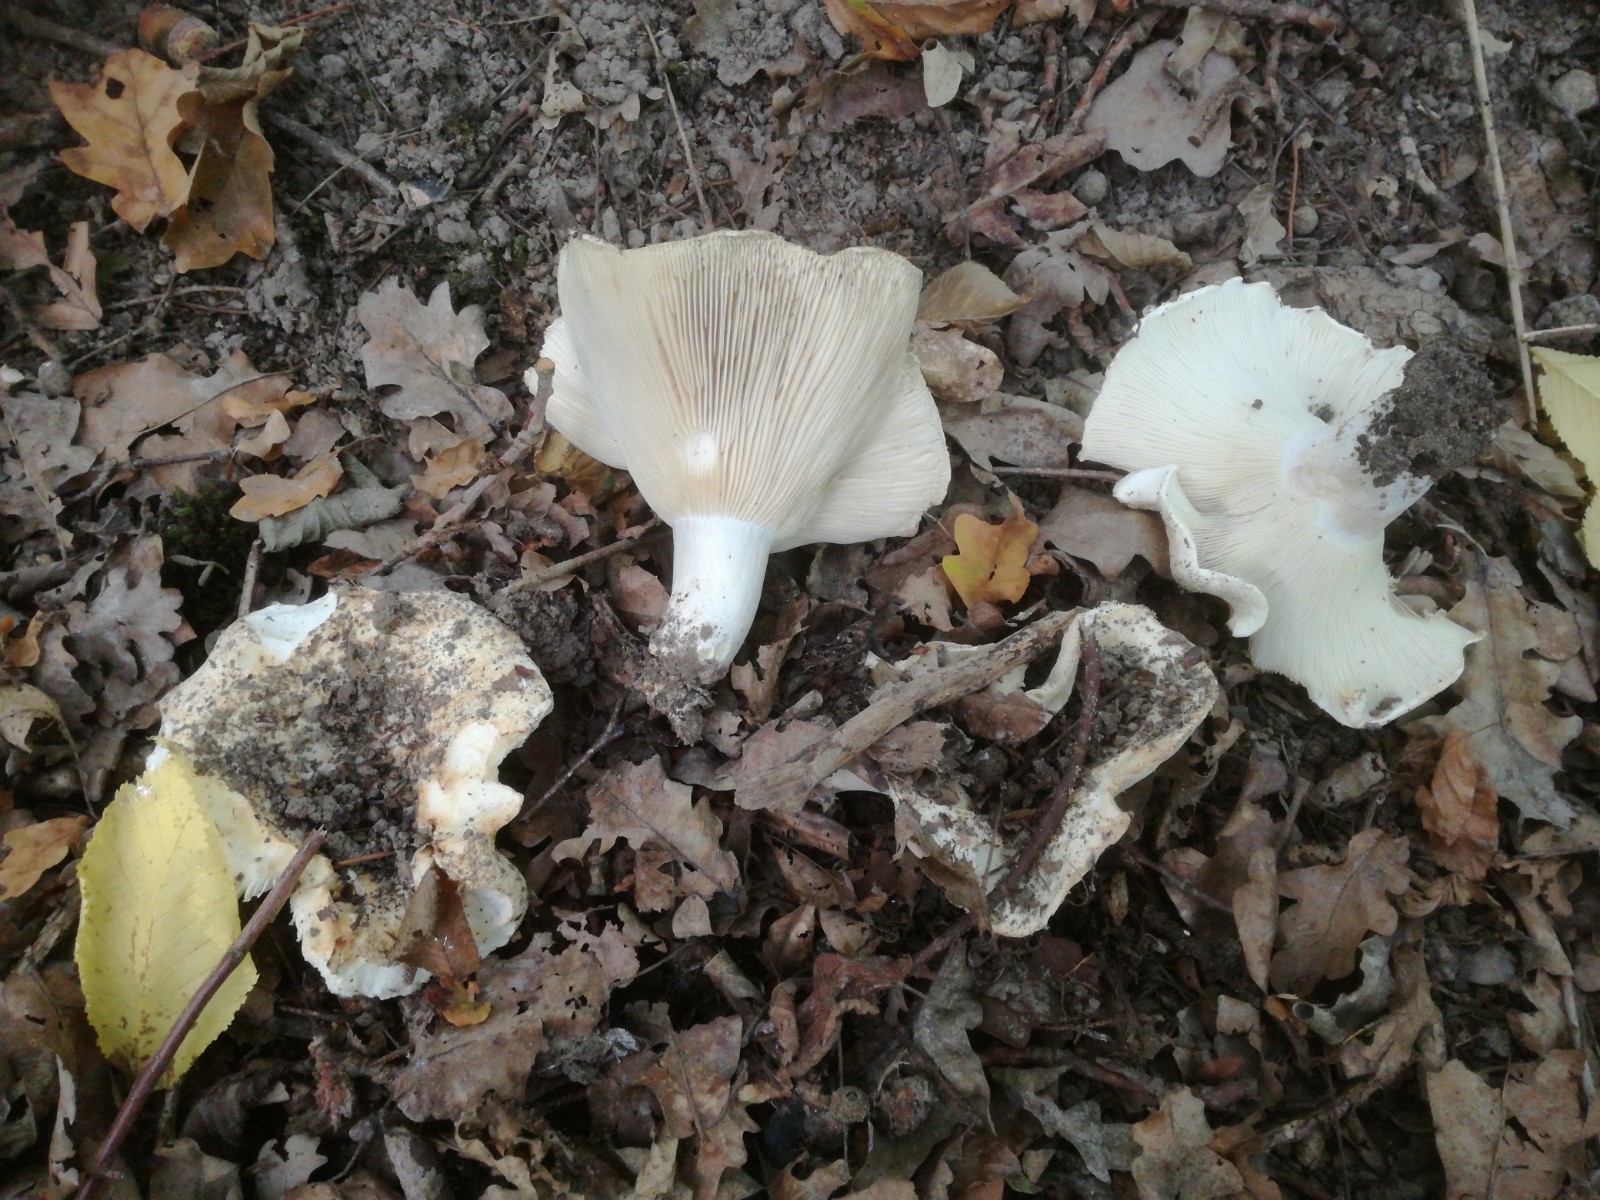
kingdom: Fungi
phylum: Basidiomycota
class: Agaricomycetes
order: Russulales
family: Russulaceae
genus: Russula
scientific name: Russula delica
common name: almindelig tragt-skørhat
